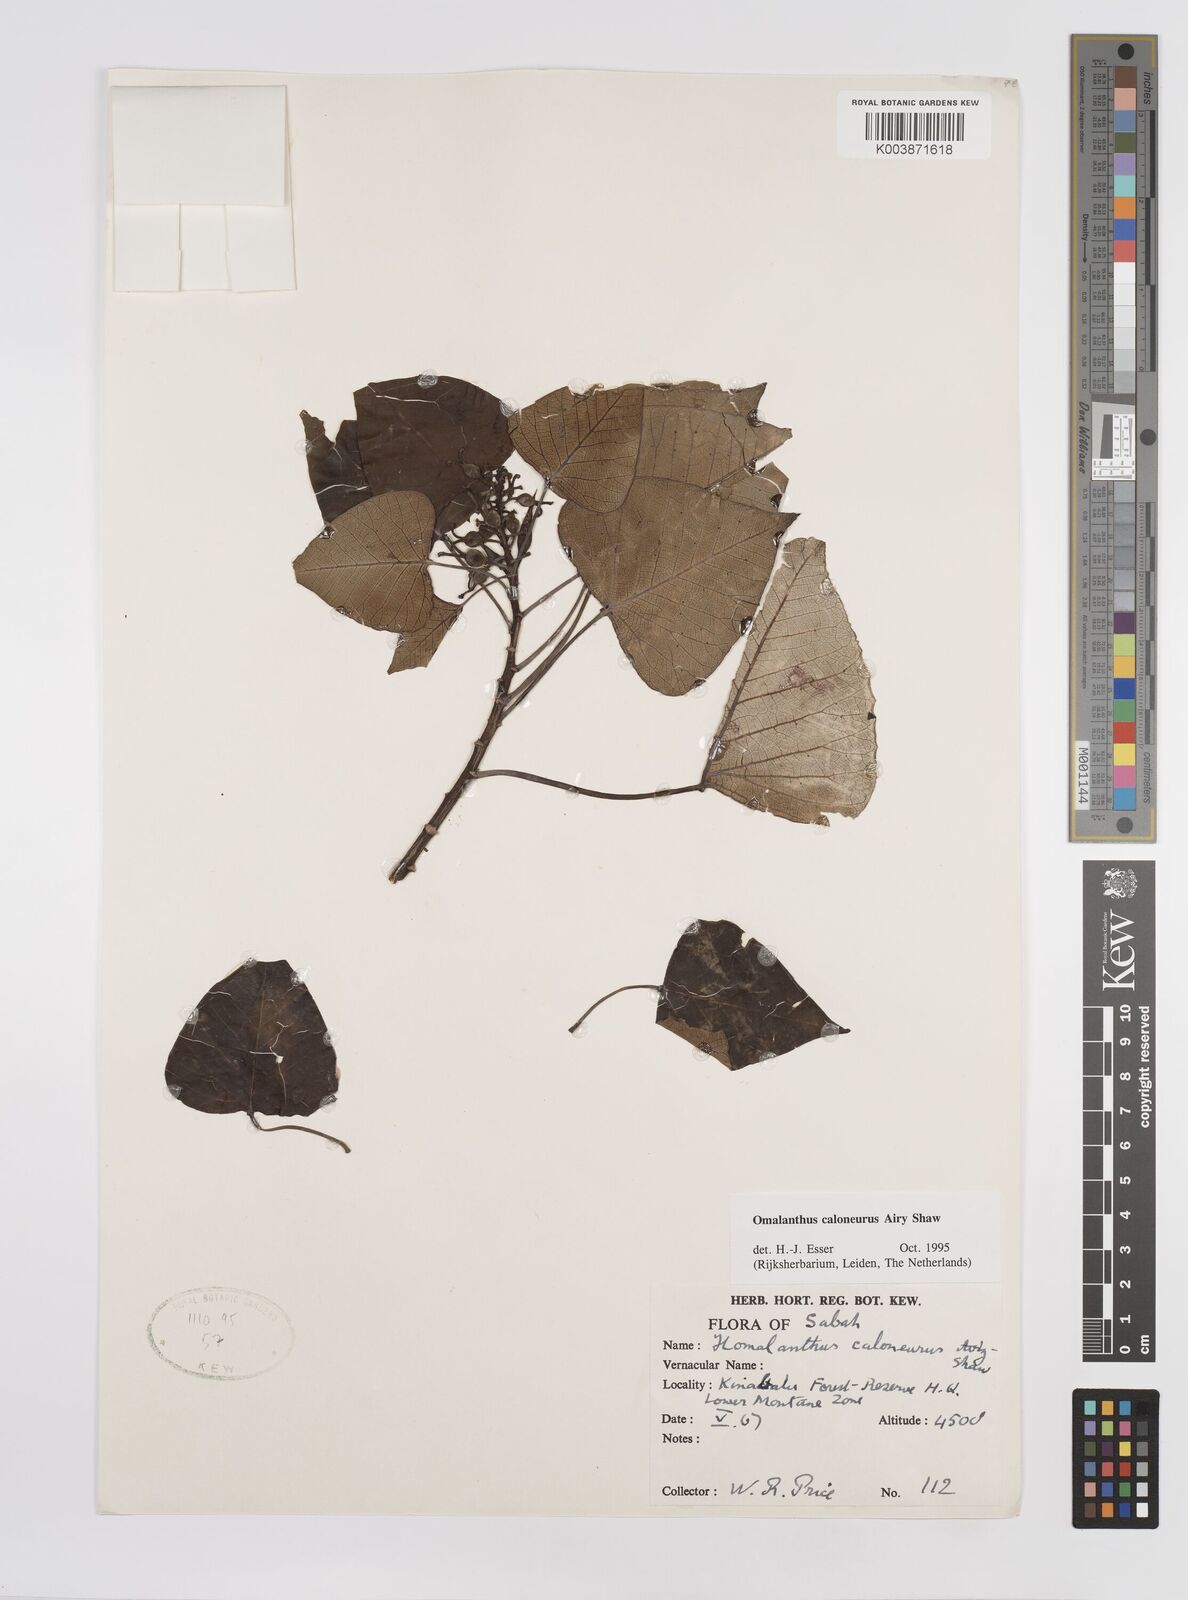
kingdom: Plantae
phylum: Tracheophyta
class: Magnoliopsida
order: Malpighiales
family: Euphorbiaceae
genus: Homalanthus
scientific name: Homalanthus caloneurus
